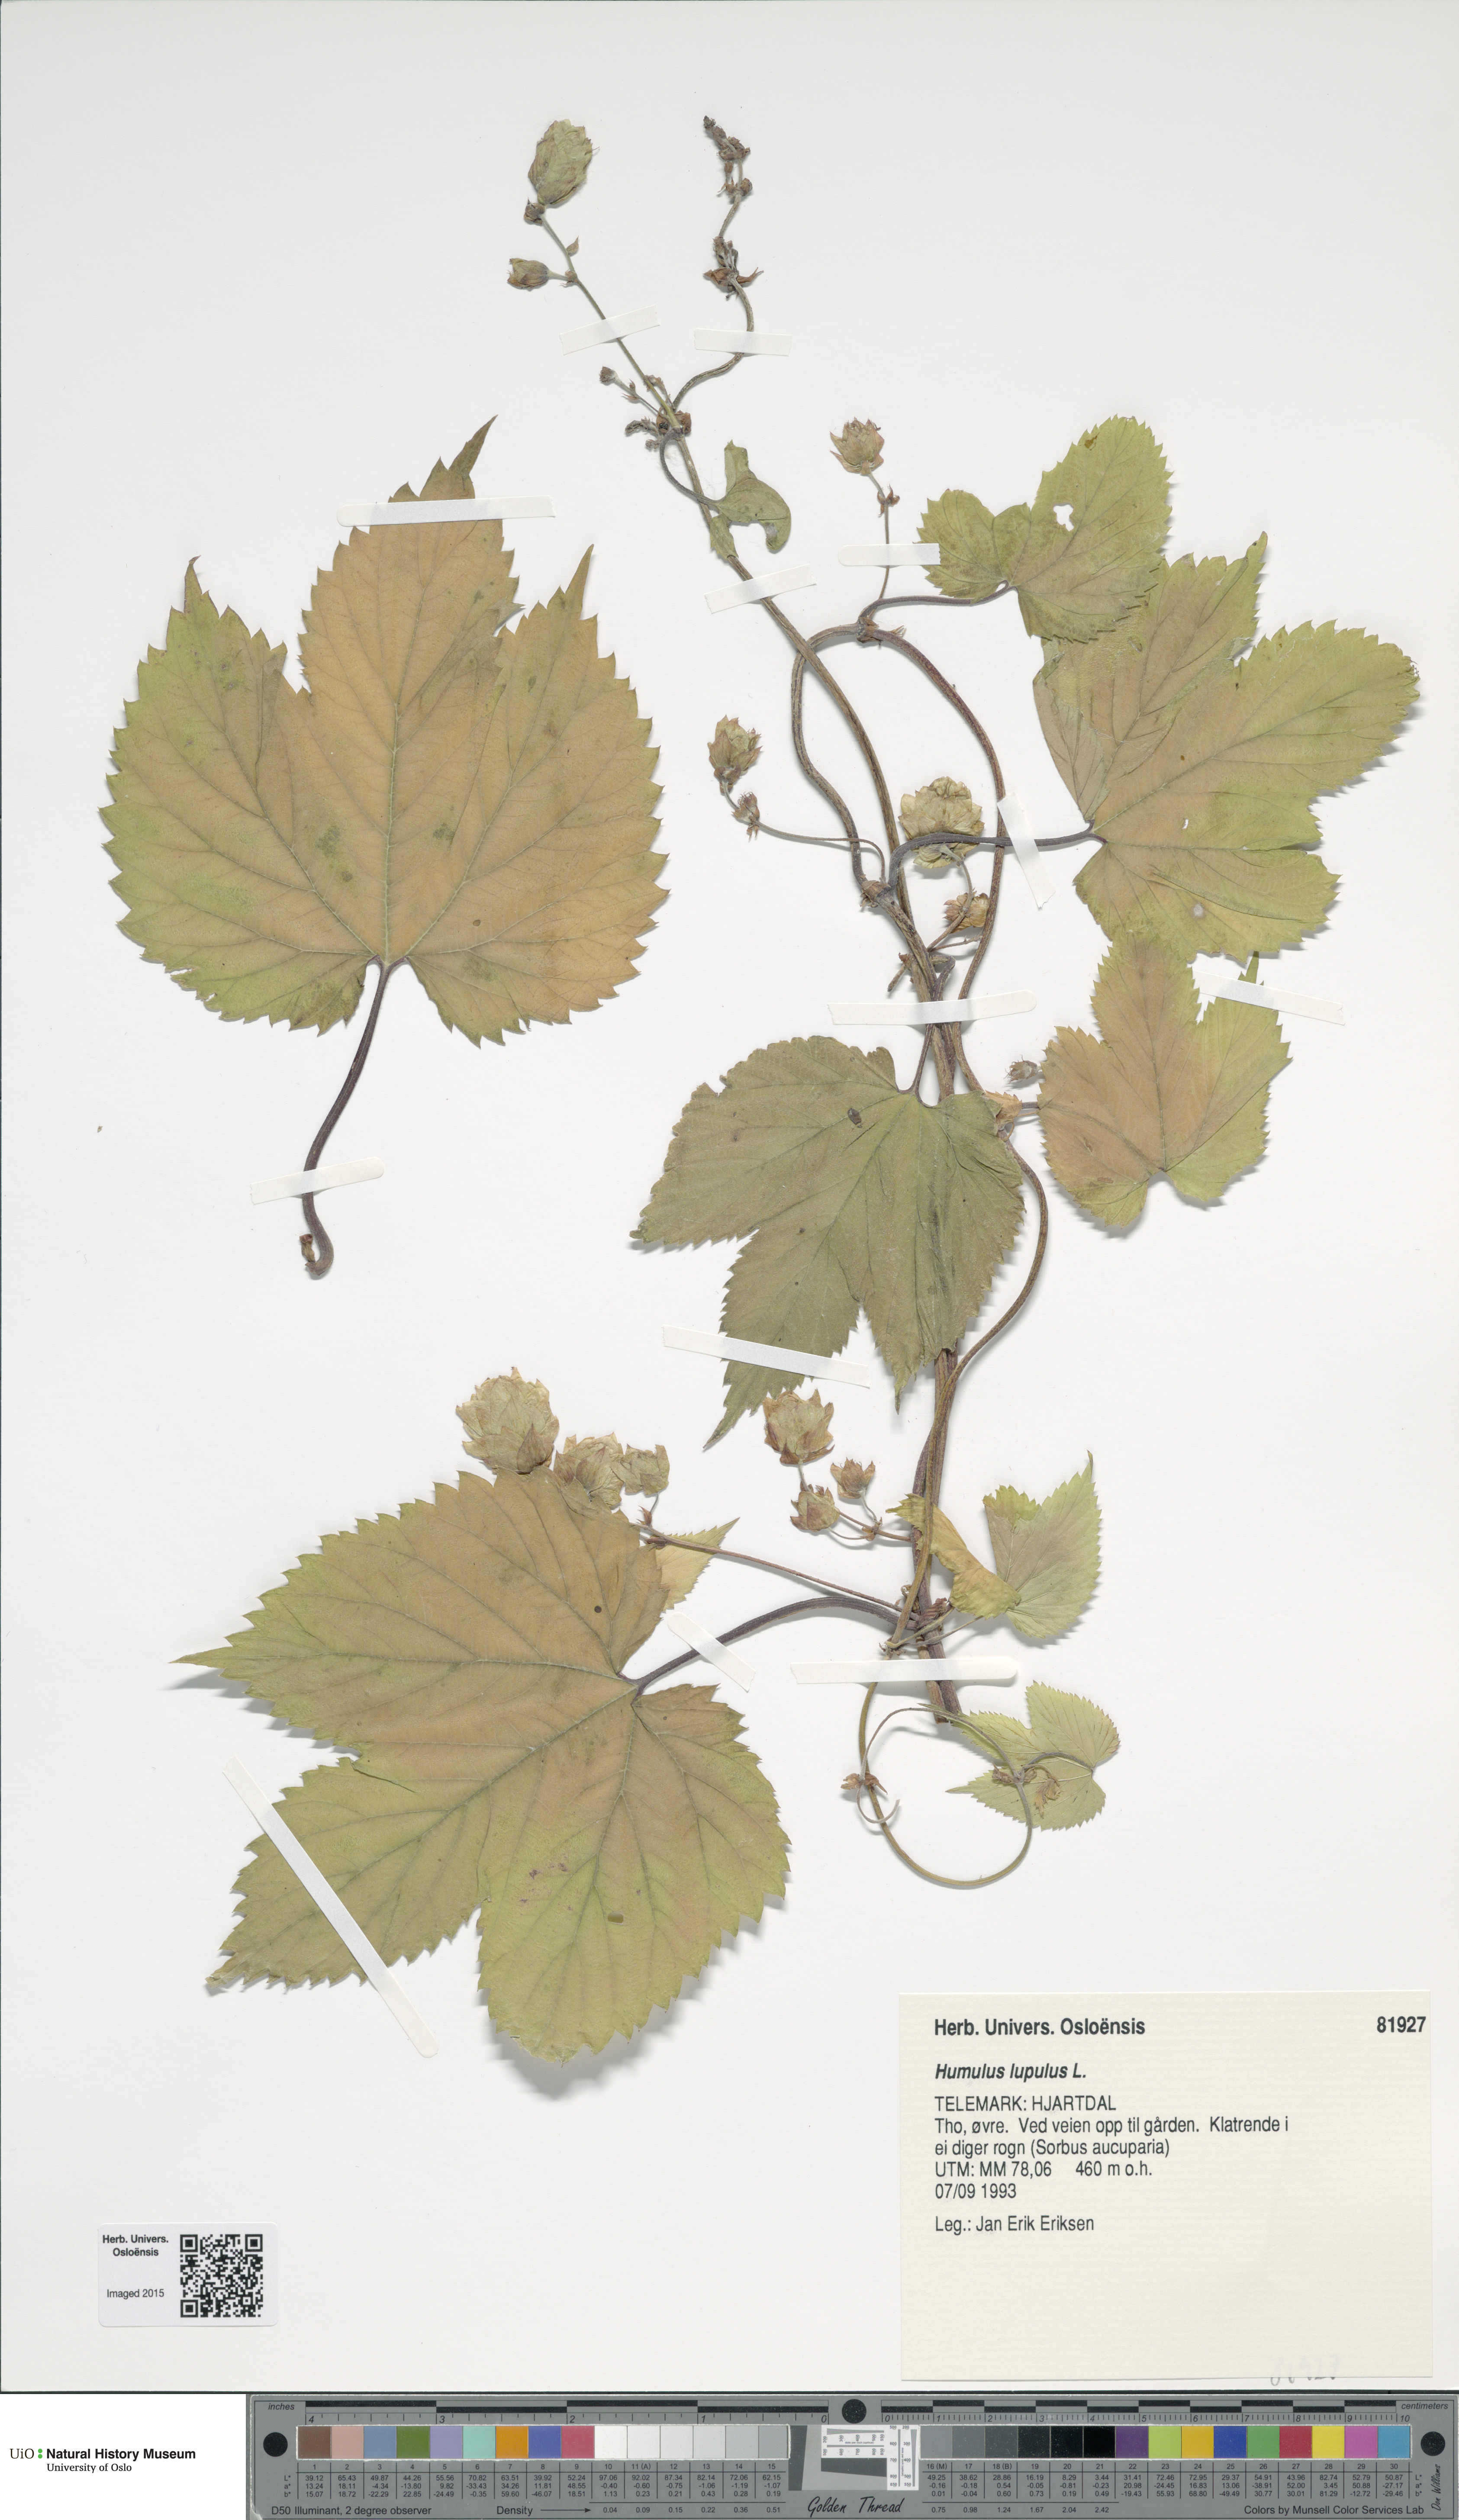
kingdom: Plantae
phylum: Tracheophyta
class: Magnoliopsida
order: Rosales
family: Cannabaceae
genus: Humulus
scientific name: Humulus lupulus
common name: Hop
